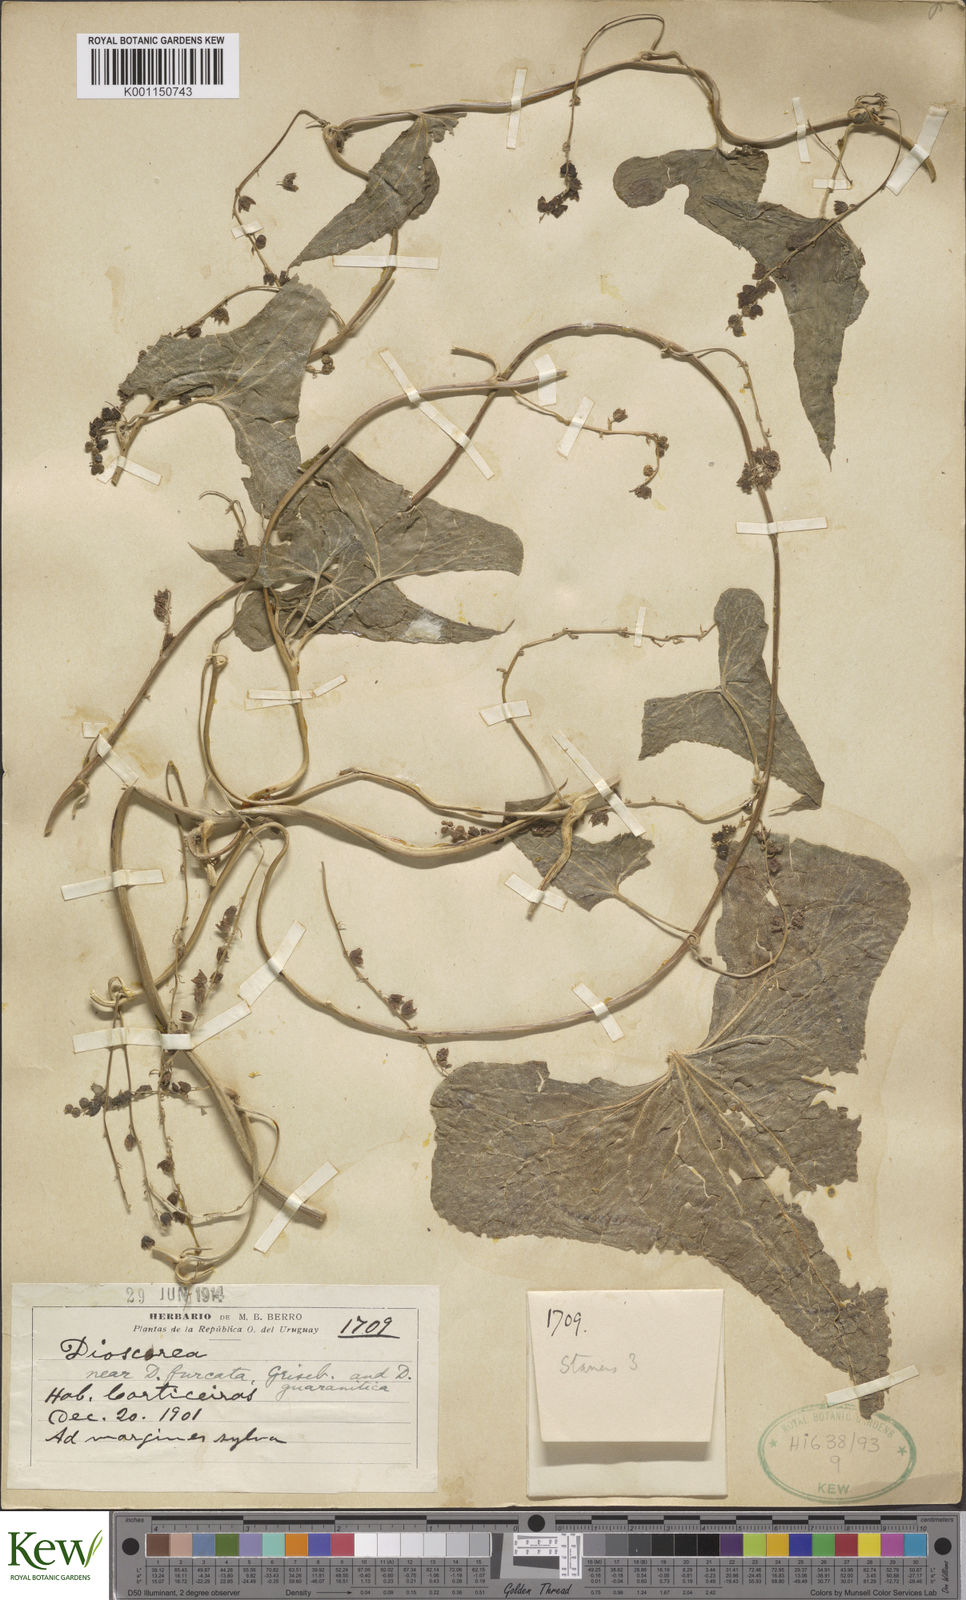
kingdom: Plantae
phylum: Tracheophyta
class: Liliopsida
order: Dioscoreales
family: Dioscoreaceae
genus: Dioscorea
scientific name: Dioscorea trifurcata
